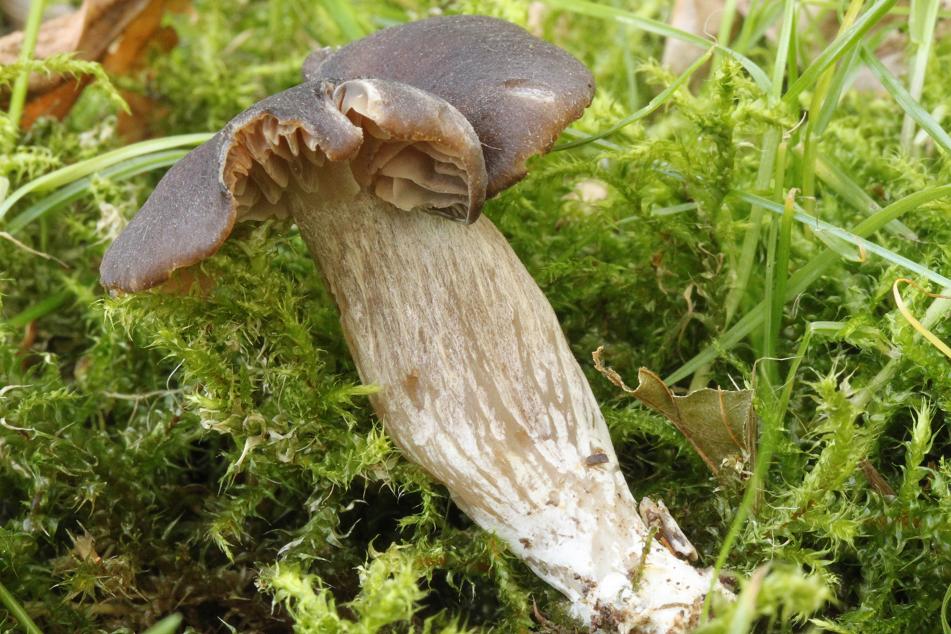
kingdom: Fungi
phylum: Basidiomycota
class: Agaricomycetes
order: Agaricales
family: Entolomataceae
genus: Entoloma
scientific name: Entoloma
